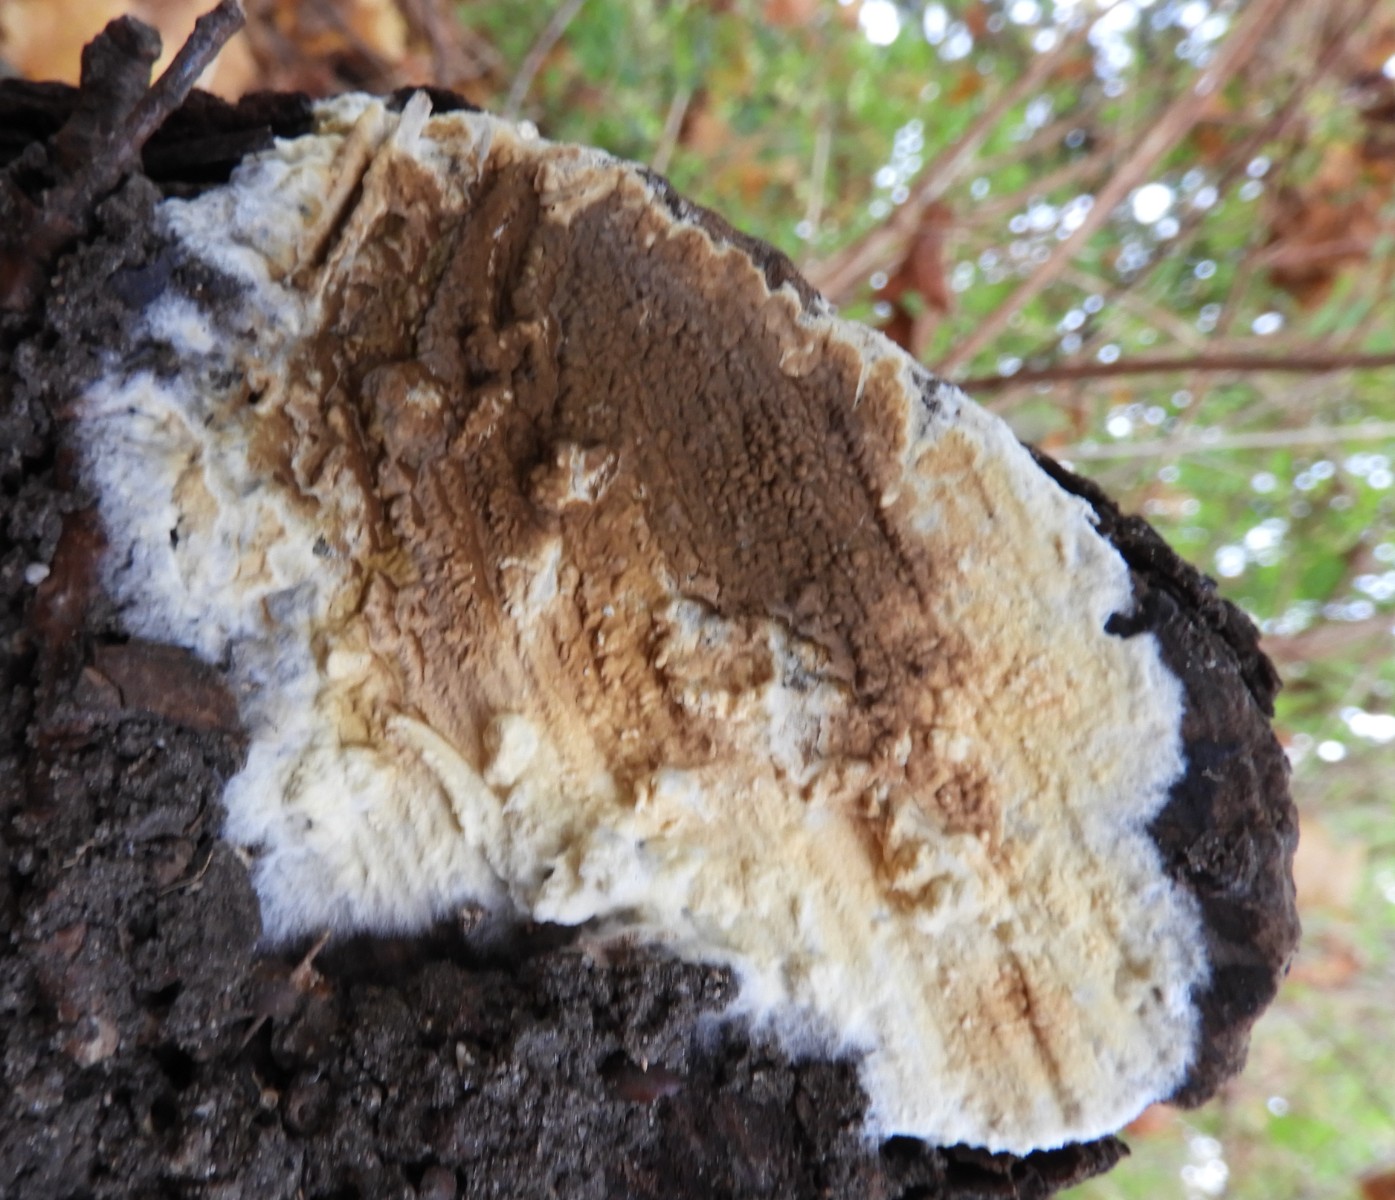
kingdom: Fungi
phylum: Basidiomycota
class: Agaricomycetes
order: Boletales
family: Coniophoraceae
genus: Coniophora
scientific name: Coniophora puteana
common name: gul tømmersvamp
